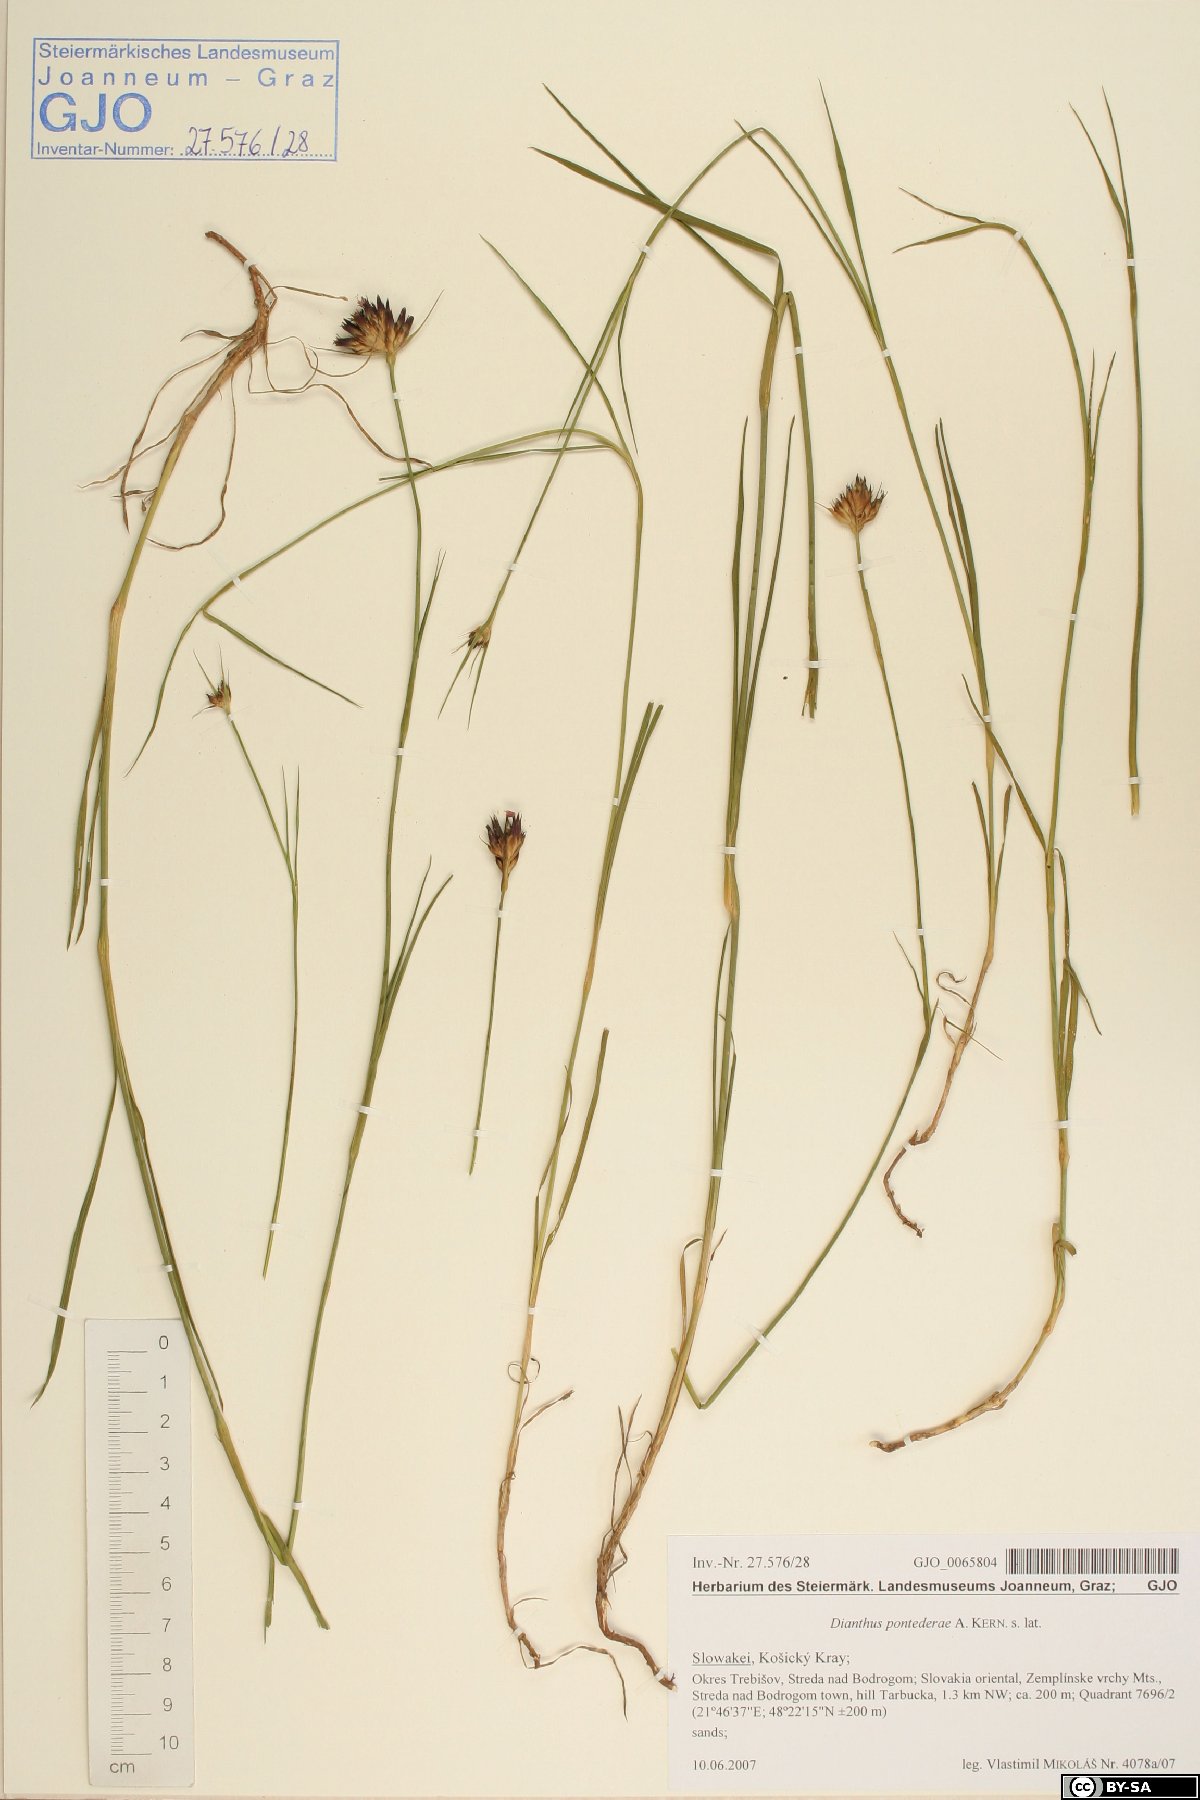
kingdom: Plantae
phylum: Tracheophyta
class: Magnoliopsida
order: Caryophyllales
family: Caryophyllaceae
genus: Dianthus
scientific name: Dianthus pontederae
